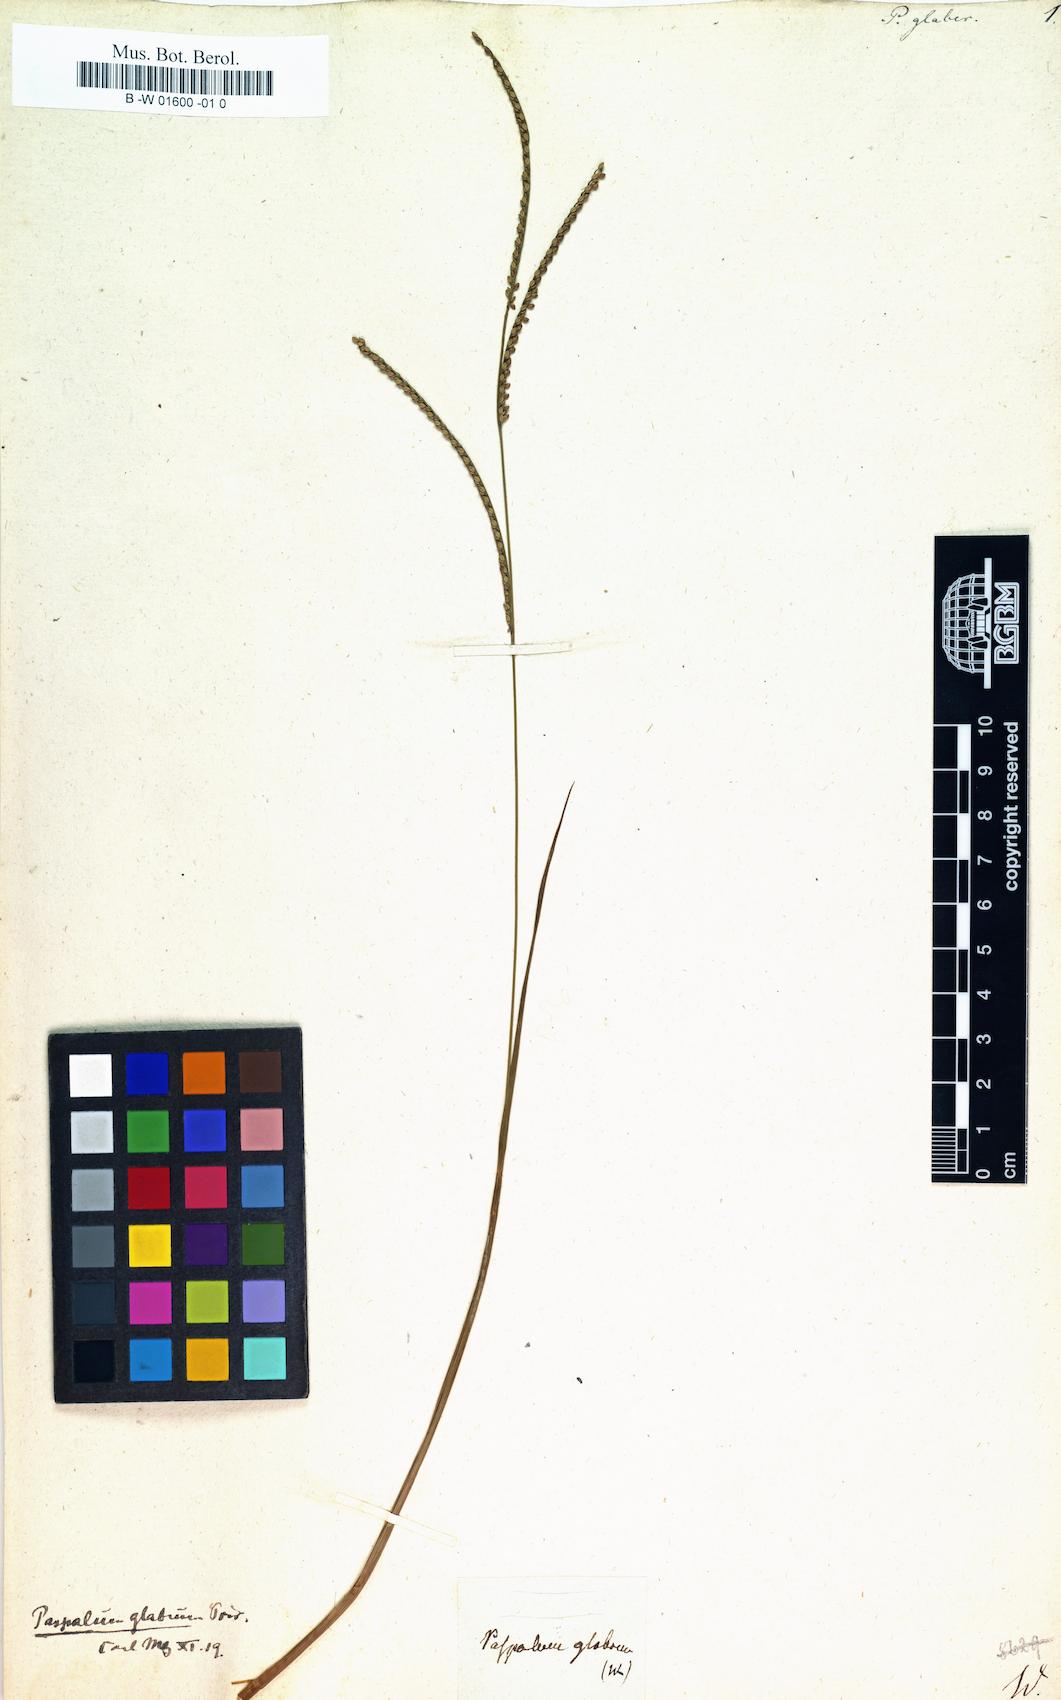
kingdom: Plantae
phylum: Tracheophyta
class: Liliopsida
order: Poales
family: Poaceae
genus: Paspalus
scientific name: Paspalus
